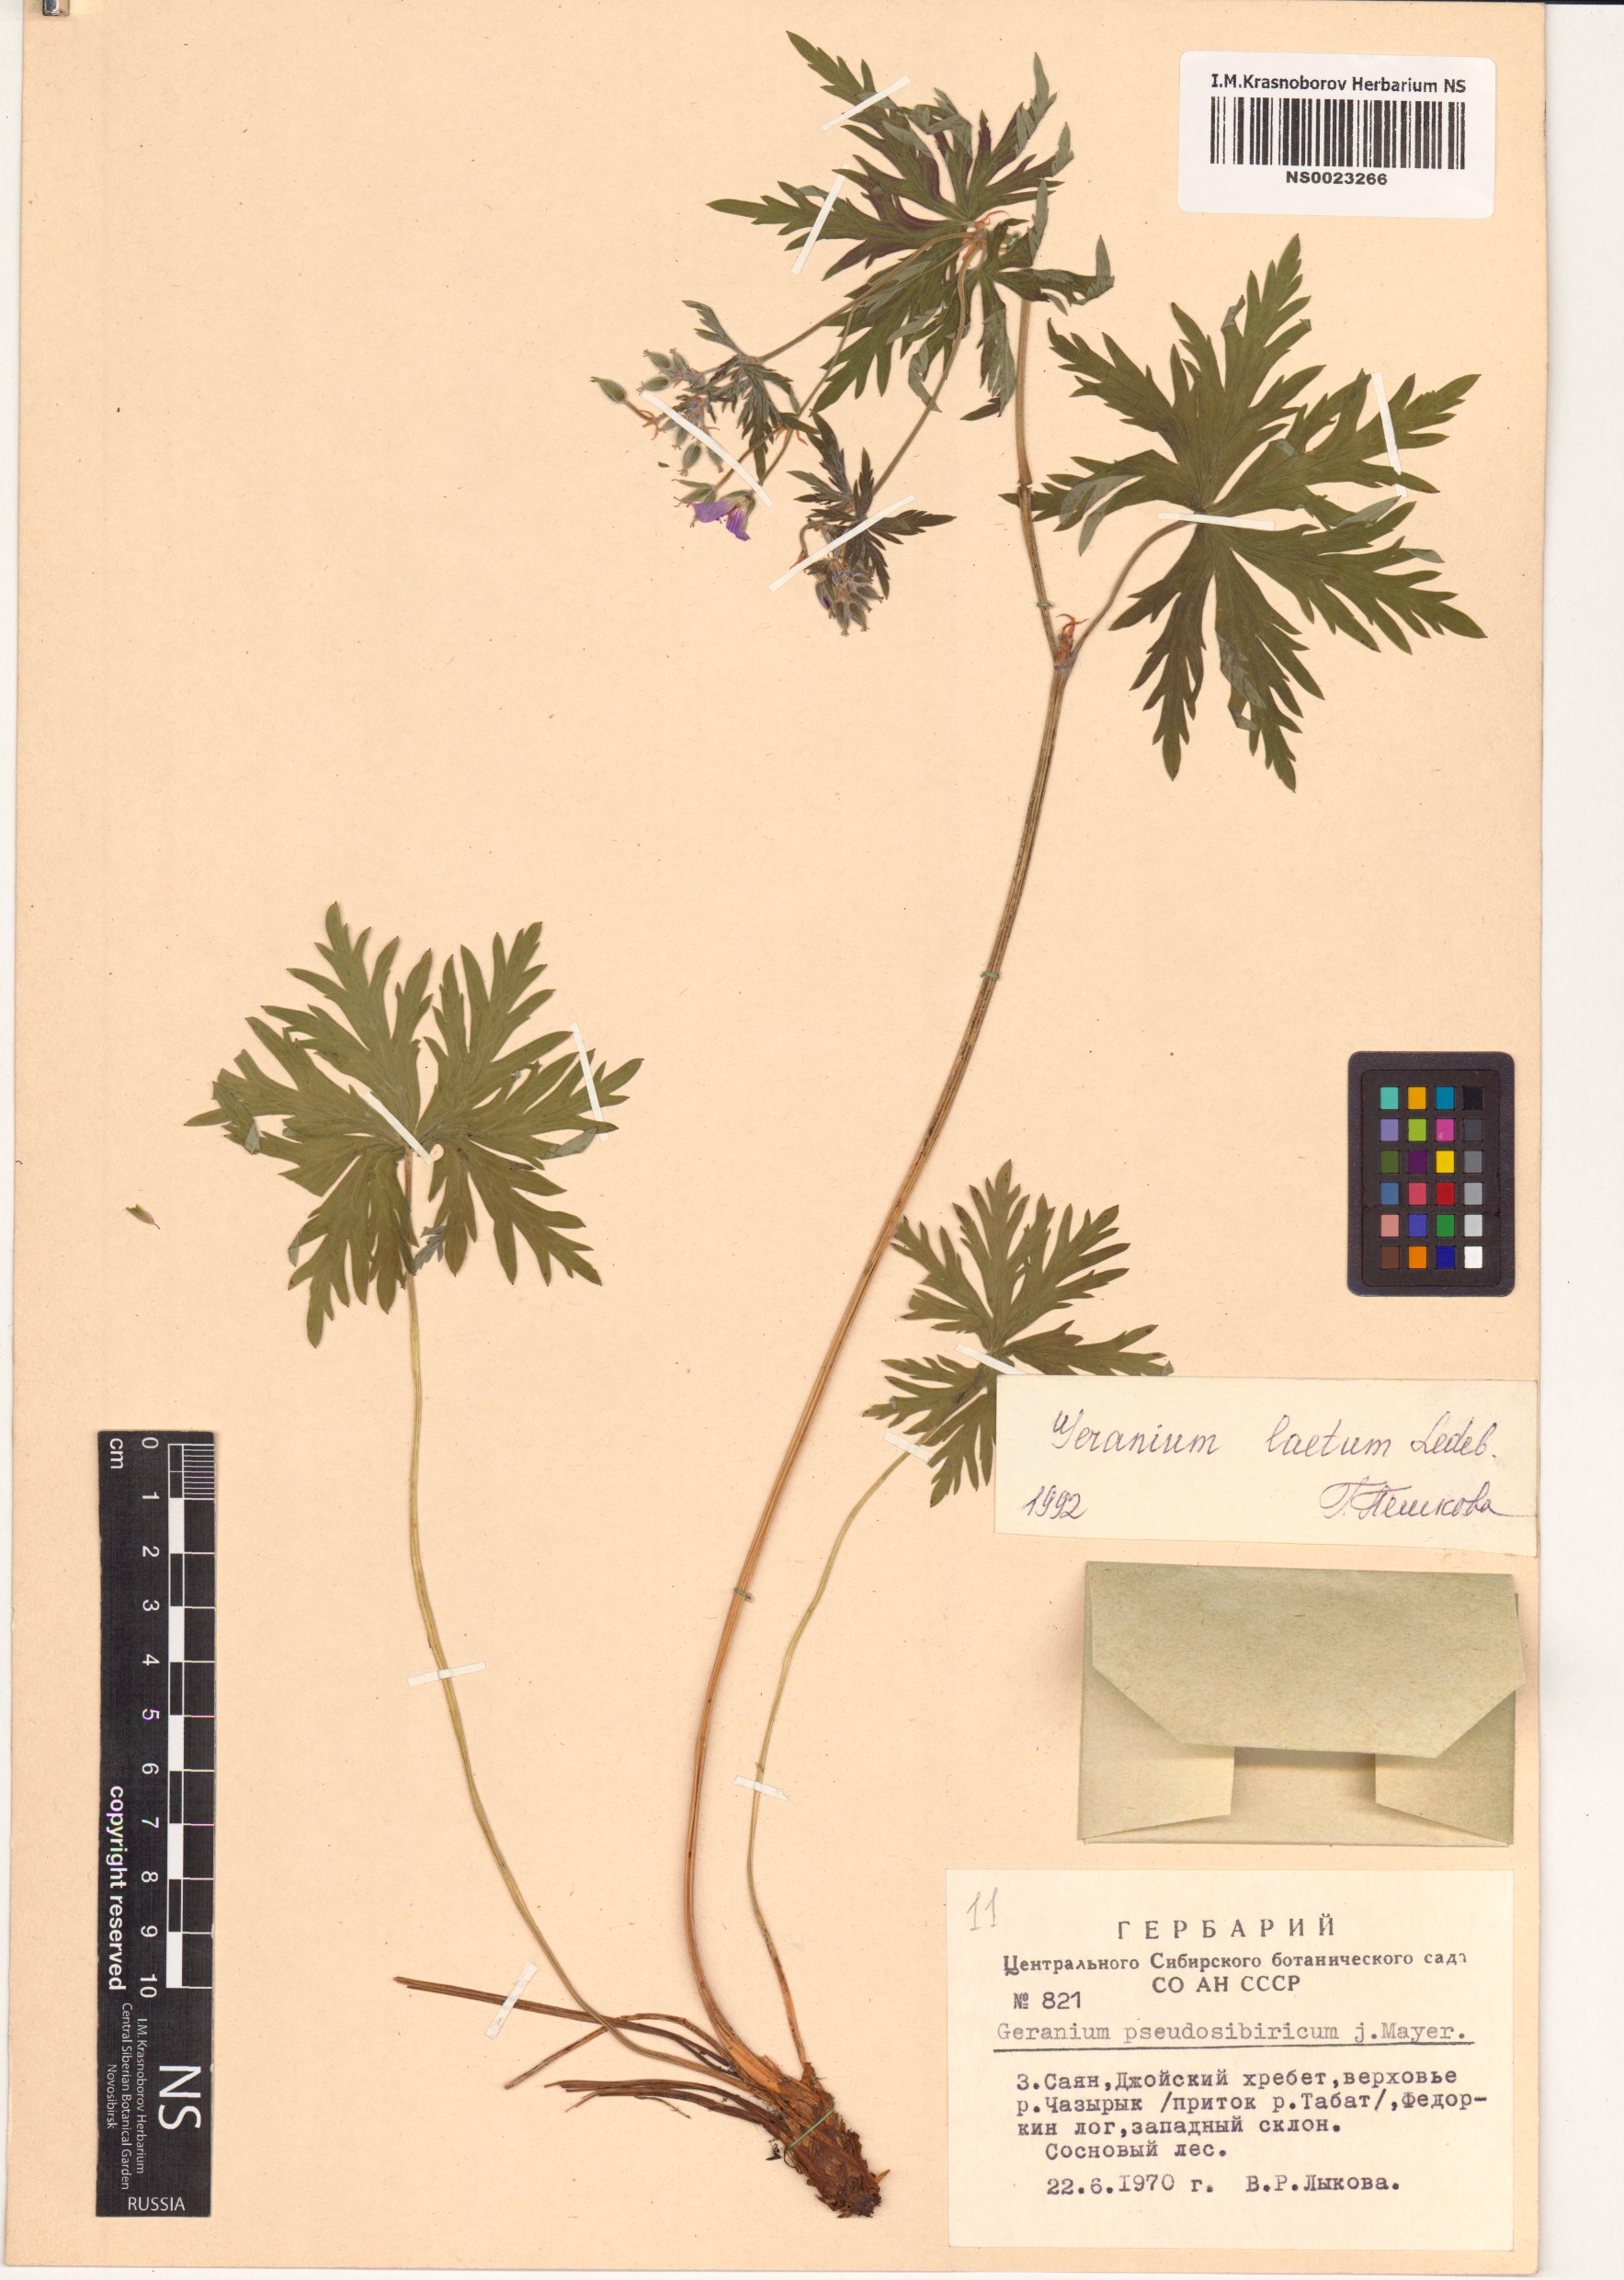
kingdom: Plantae
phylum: Tracheophyta
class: Magnoliopsida
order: Geraniales
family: Geraniaceae
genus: Geranium
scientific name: Geranium pseudosibiricum
